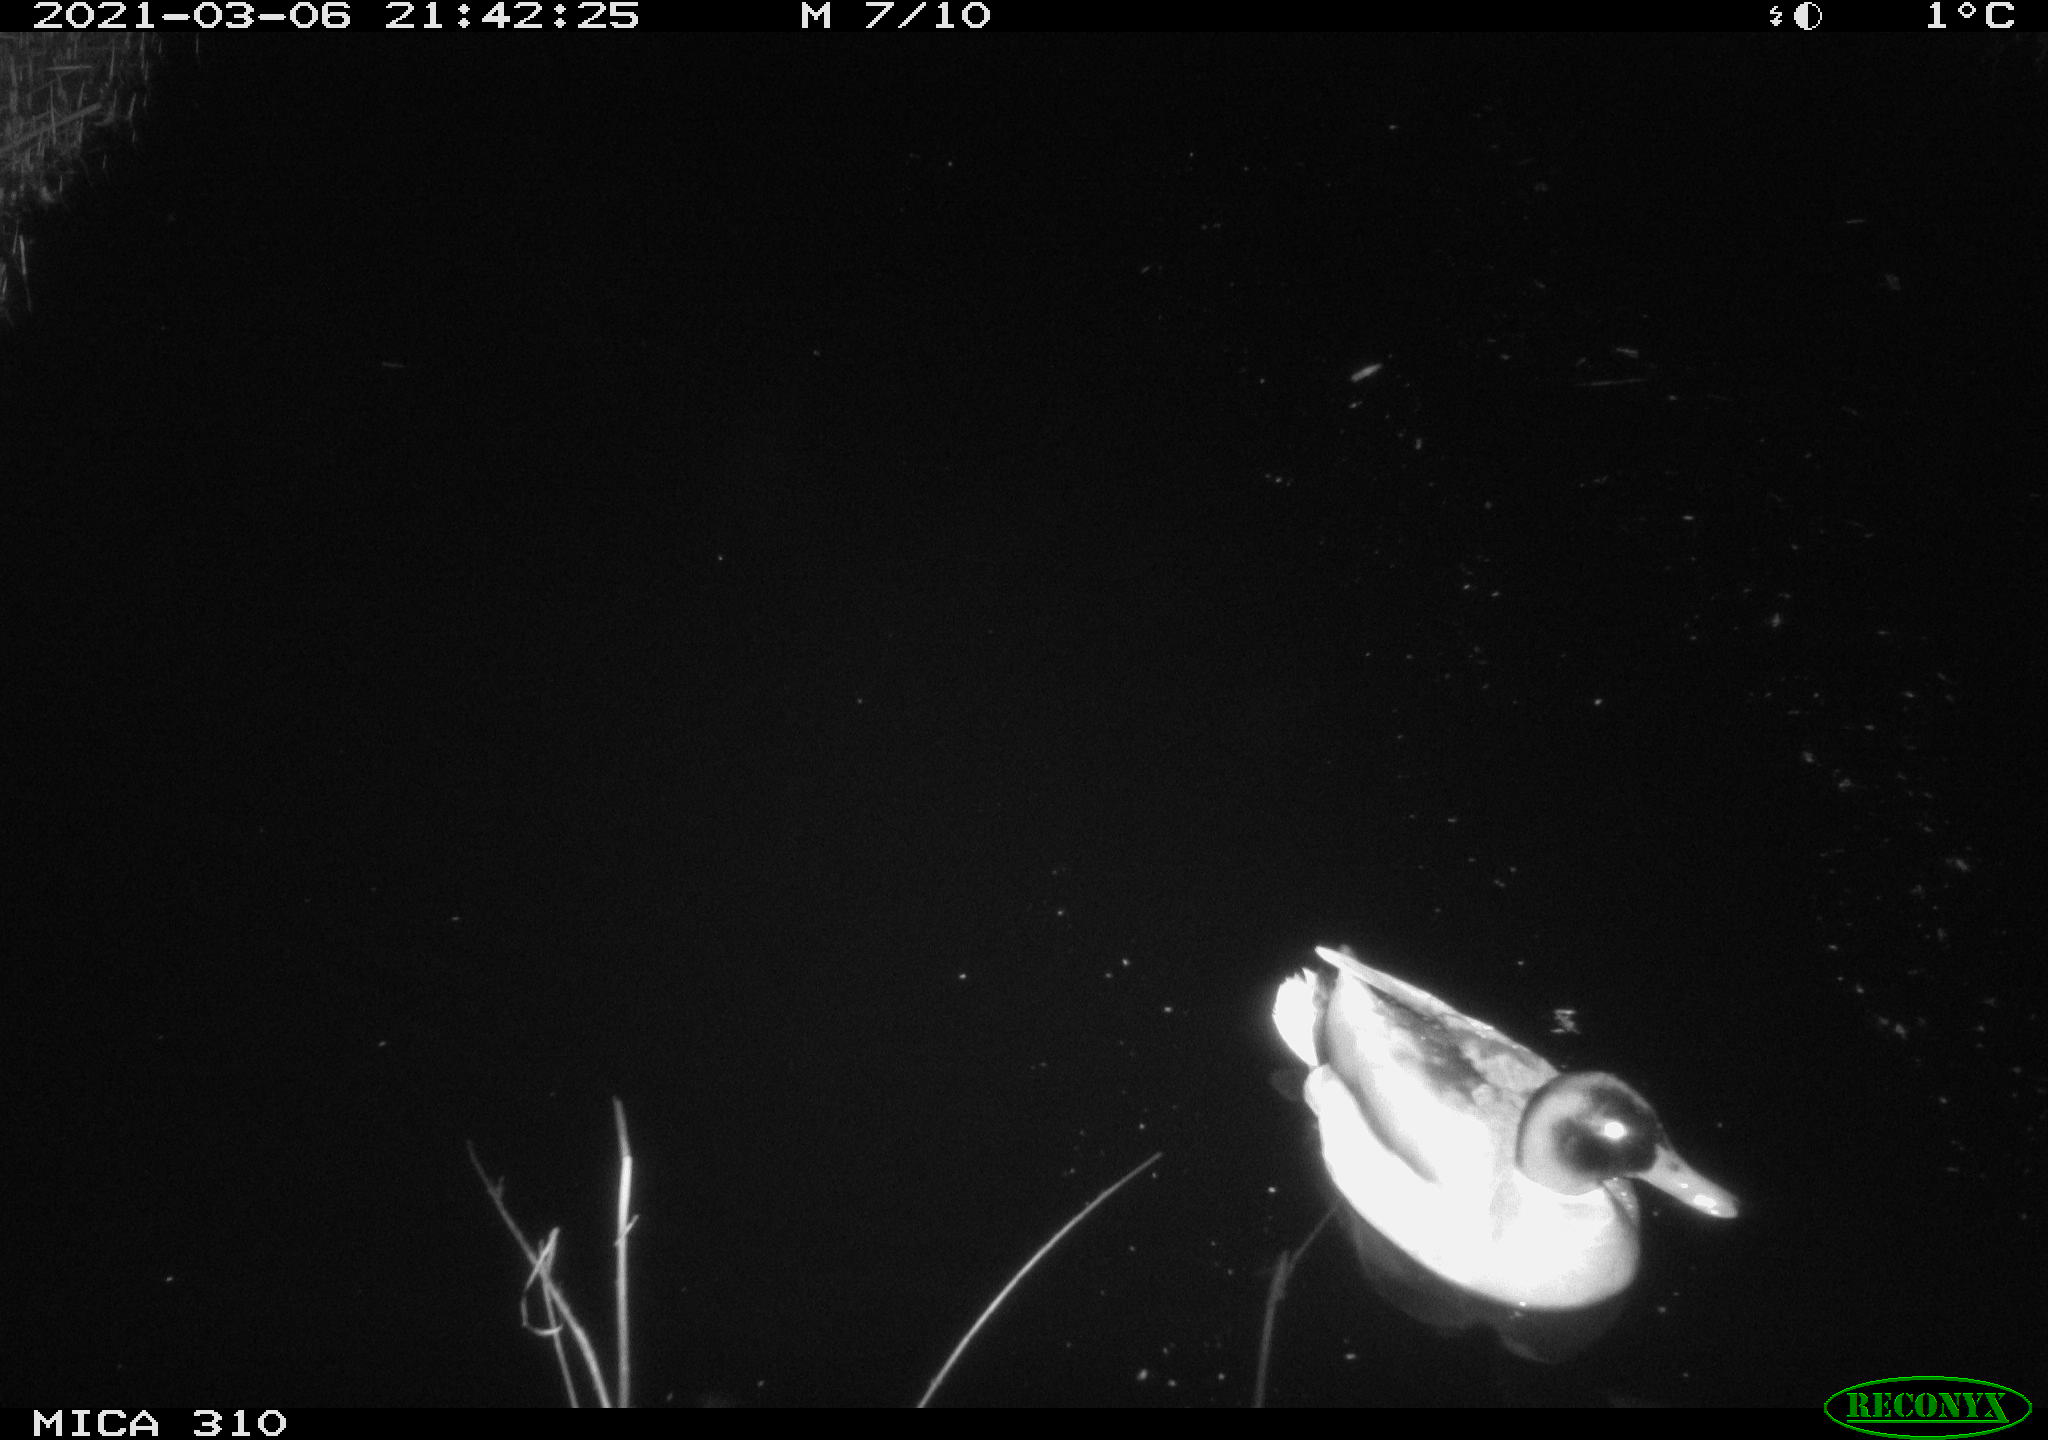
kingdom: Animalia
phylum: Chordata
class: Aves
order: Anseriformes
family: Anatidae
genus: Anas
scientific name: Anas platyrhynchos
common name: Mallard
